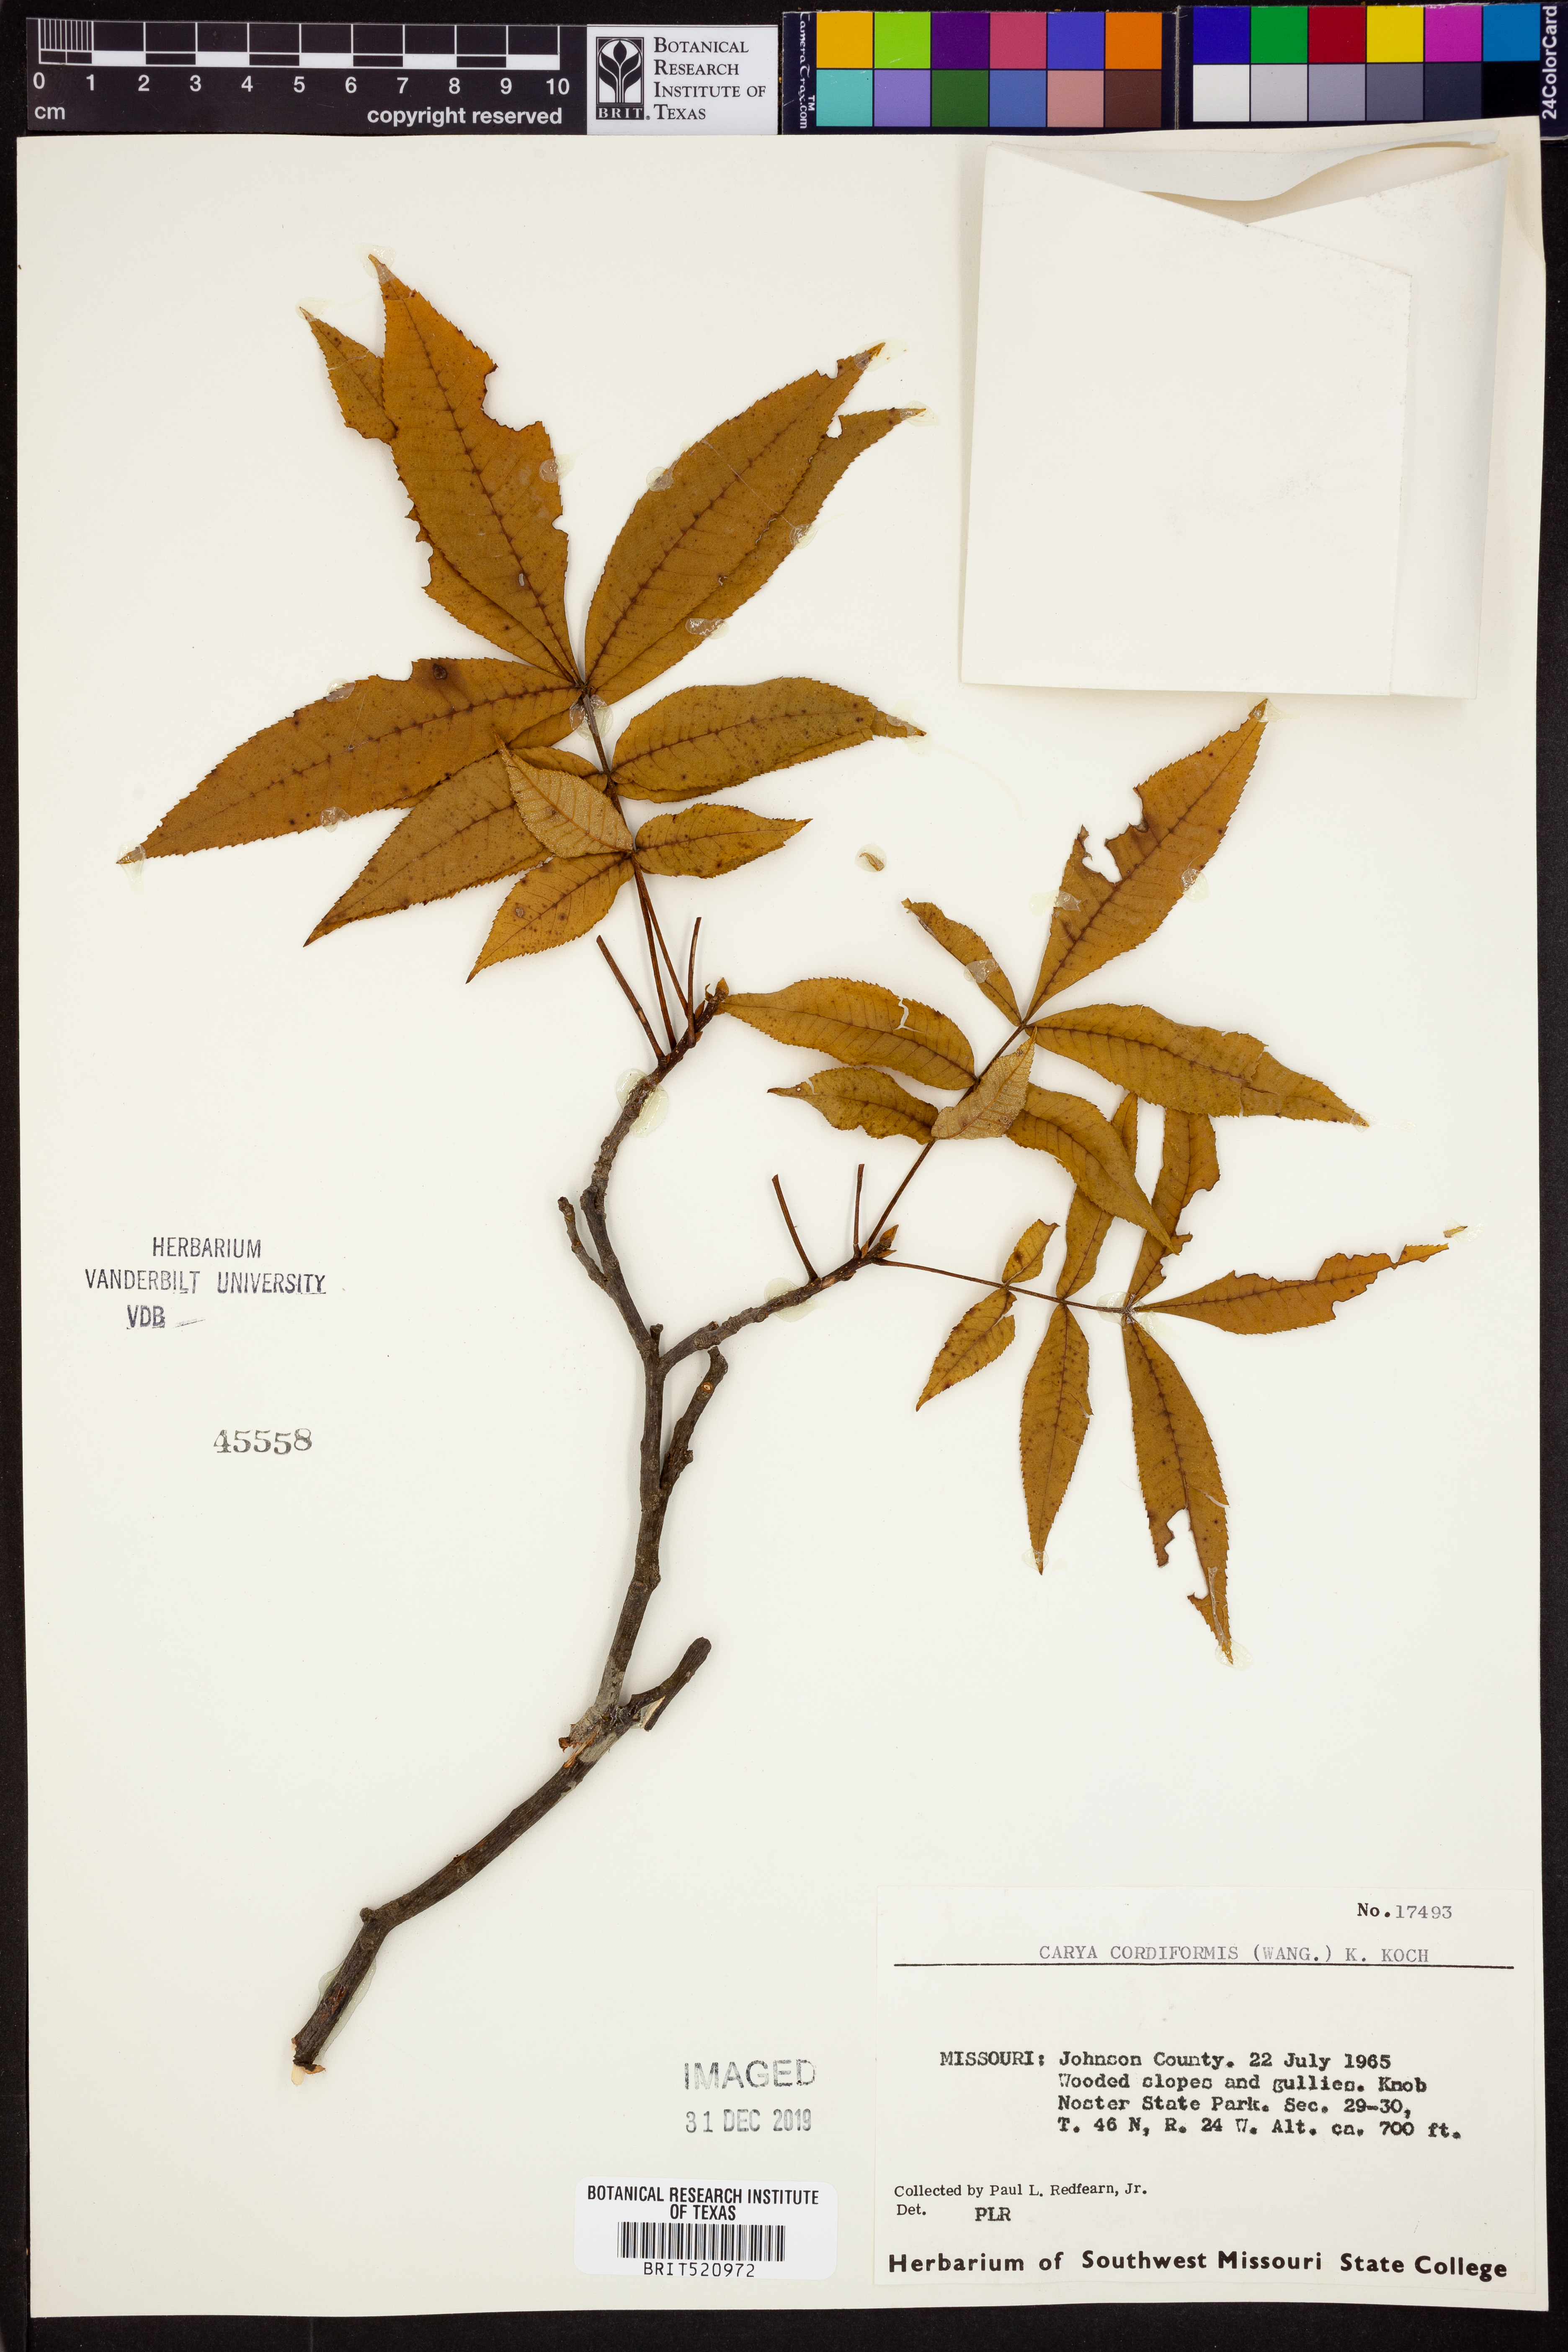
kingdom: Plantae
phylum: Tracheophyta
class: Magnoliopsida
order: Fagales
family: Juglandaceae
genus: Carya
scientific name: Carya cordiformis
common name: Bitternut hickory
